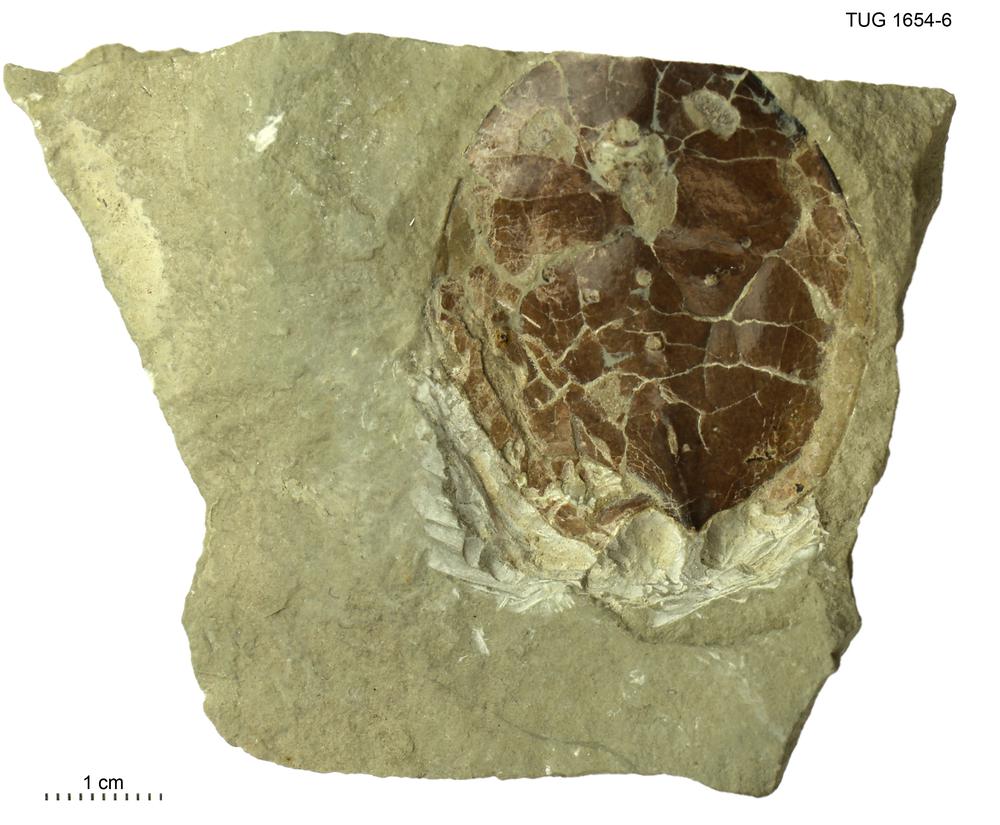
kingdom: Animalia
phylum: Chordata
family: Tremataspididae
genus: Tremataspis
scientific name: Tremataspis
